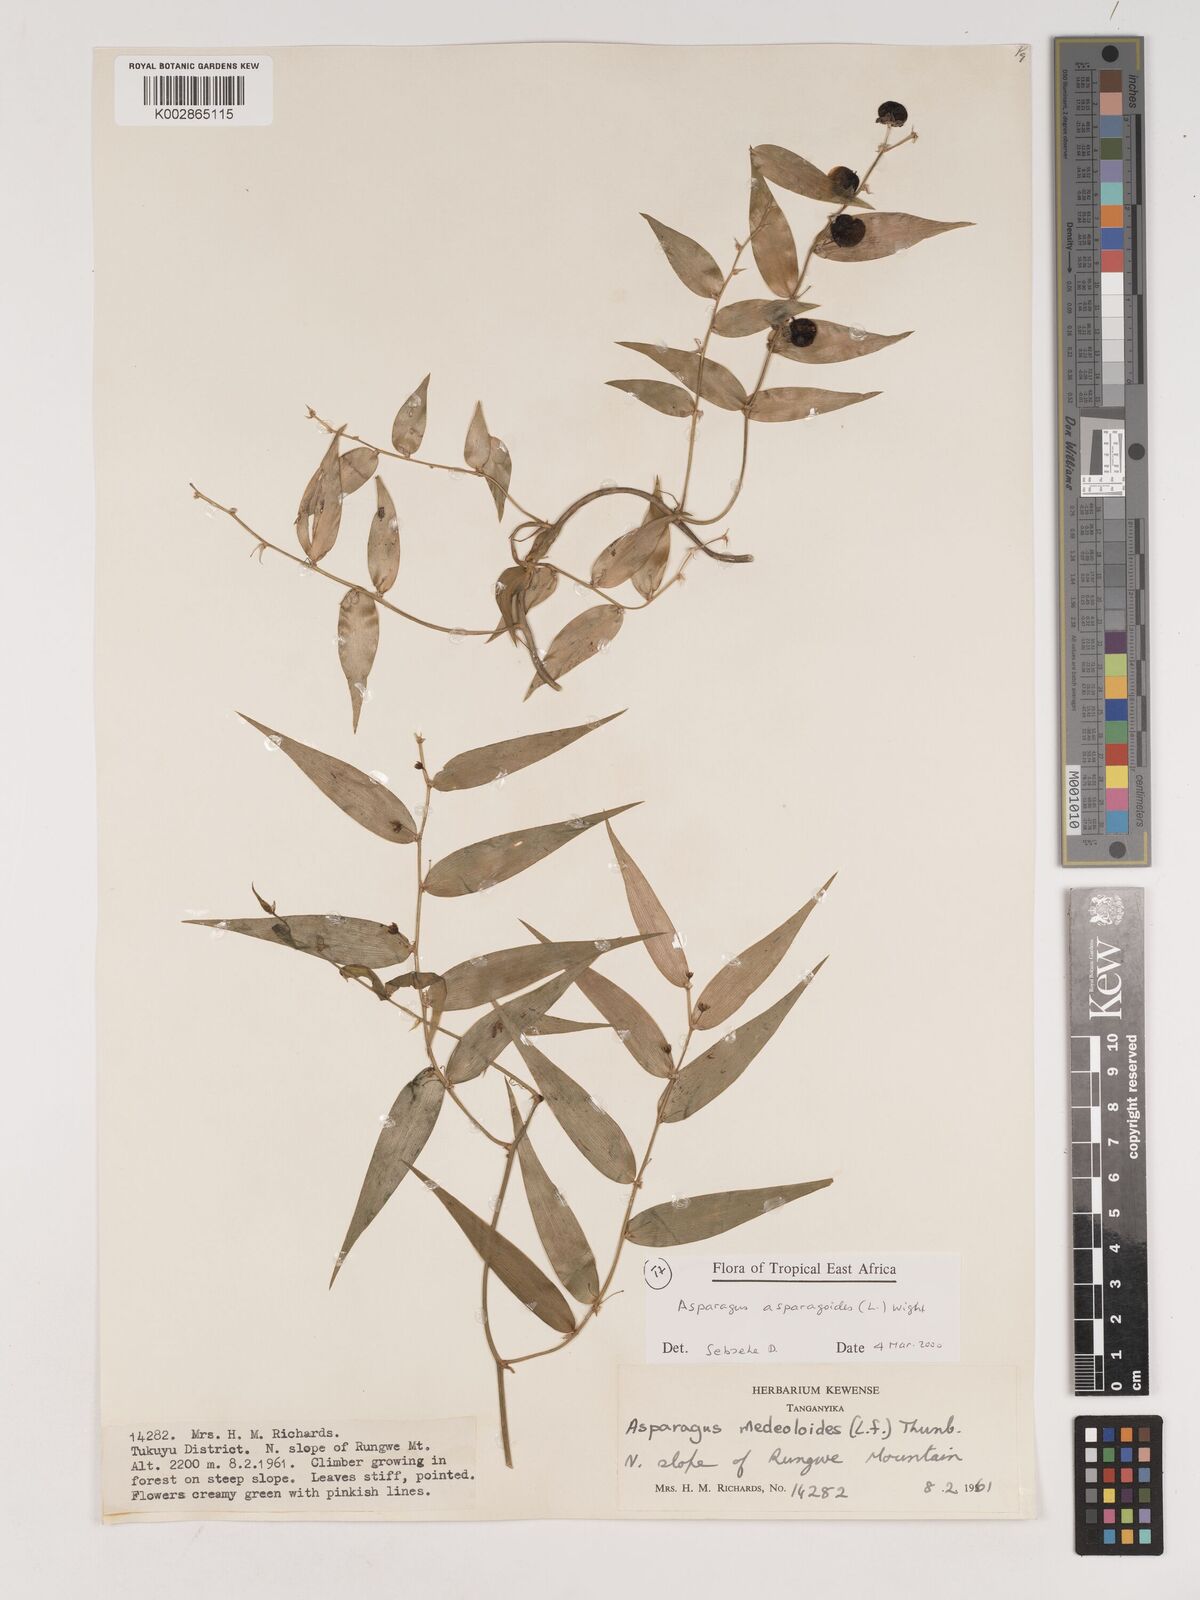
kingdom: Plantae
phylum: Tracheophyta
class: Liliopsida
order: Asparagales
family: Asparagaceae
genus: Asparagus
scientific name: Asparagus asparagoides
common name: African asparagus fern
